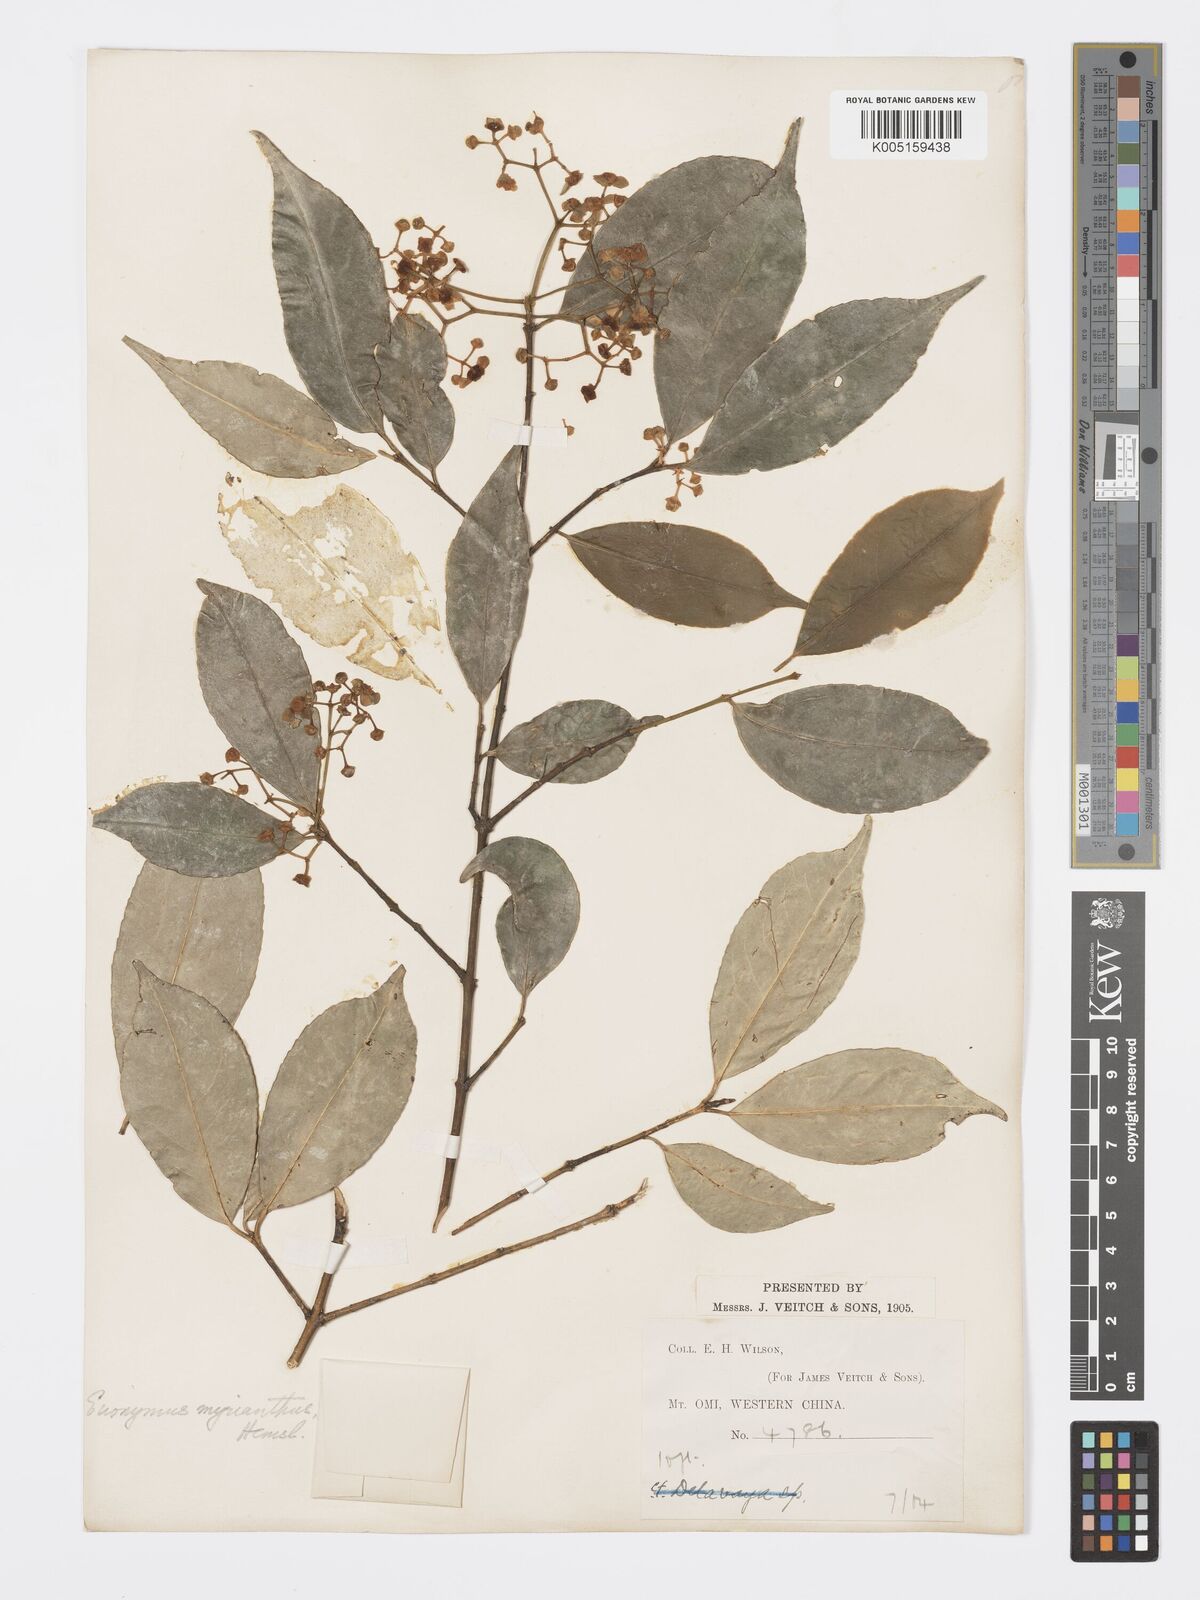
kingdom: Plantae
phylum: Tracheophyta
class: Magnoliopsida
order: Celastrales
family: Celastraceae
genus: Euonymus
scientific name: Euonymus myrianthus
